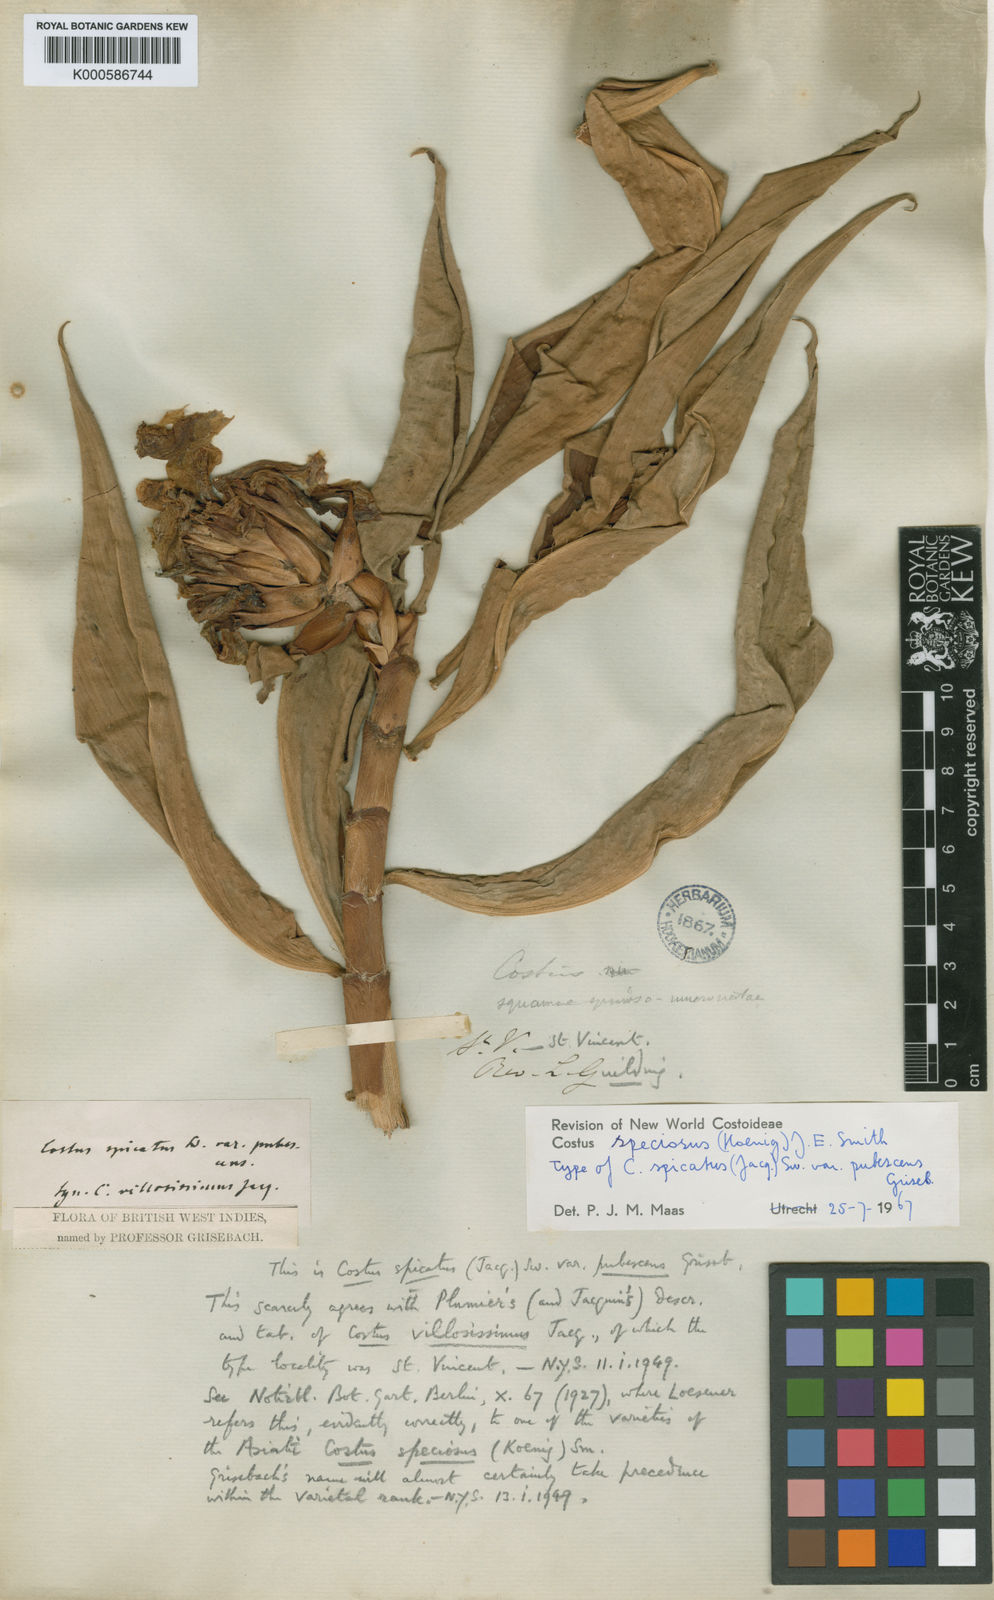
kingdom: Plantae
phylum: Tracheophyta
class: Liliopsida
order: Zingiberales
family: Costaceae
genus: Costus
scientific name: Costus
